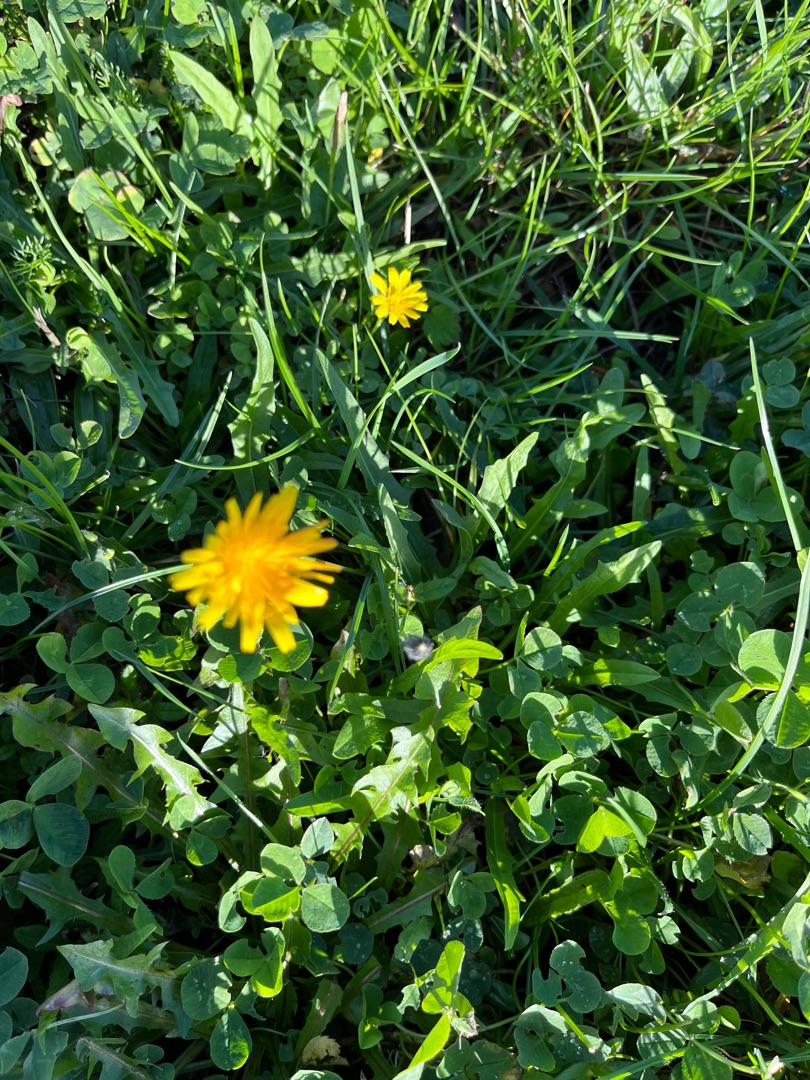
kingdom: Plantae
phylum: Tracheophyta
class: Magnoliopsida
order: Asterales
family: Asteraceae
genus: Scorzoneroides
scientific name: Scorzoneroides autumnalis
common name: Høst-borst
